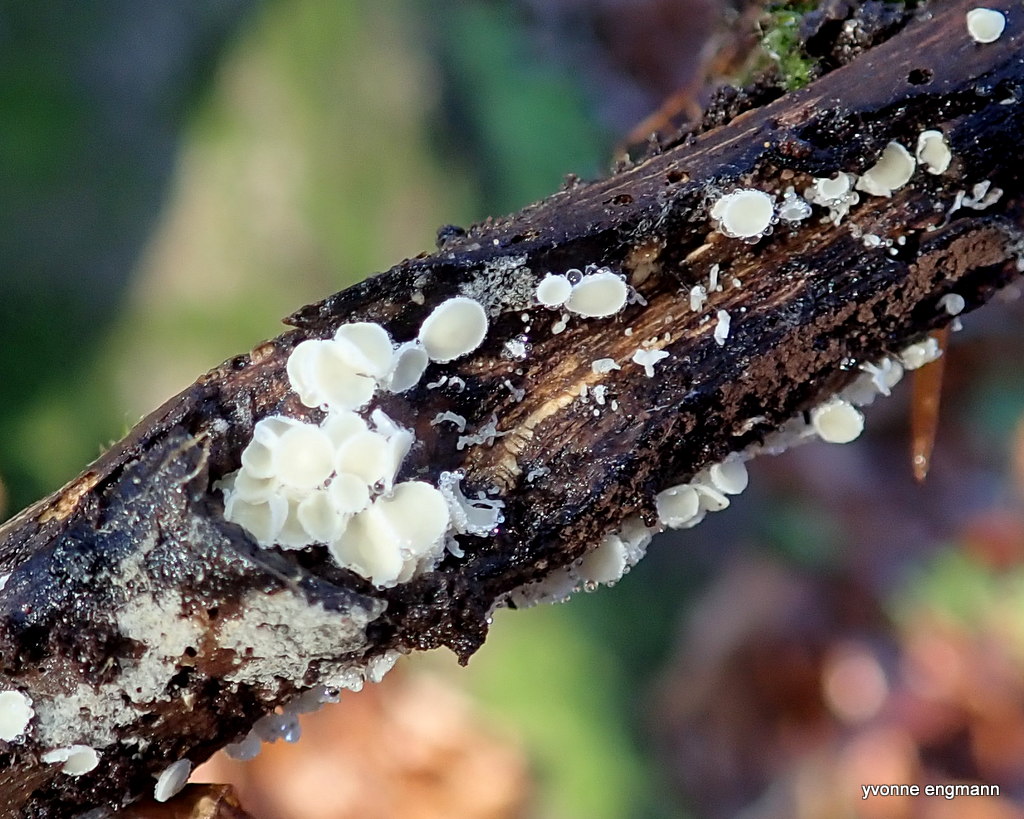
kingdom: Fungi
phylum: Ascomycota
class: Leotiomycetes
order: Helotiales
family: Lachnaceae
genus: Lachnum
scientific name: Lachnum
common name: frynseskive
